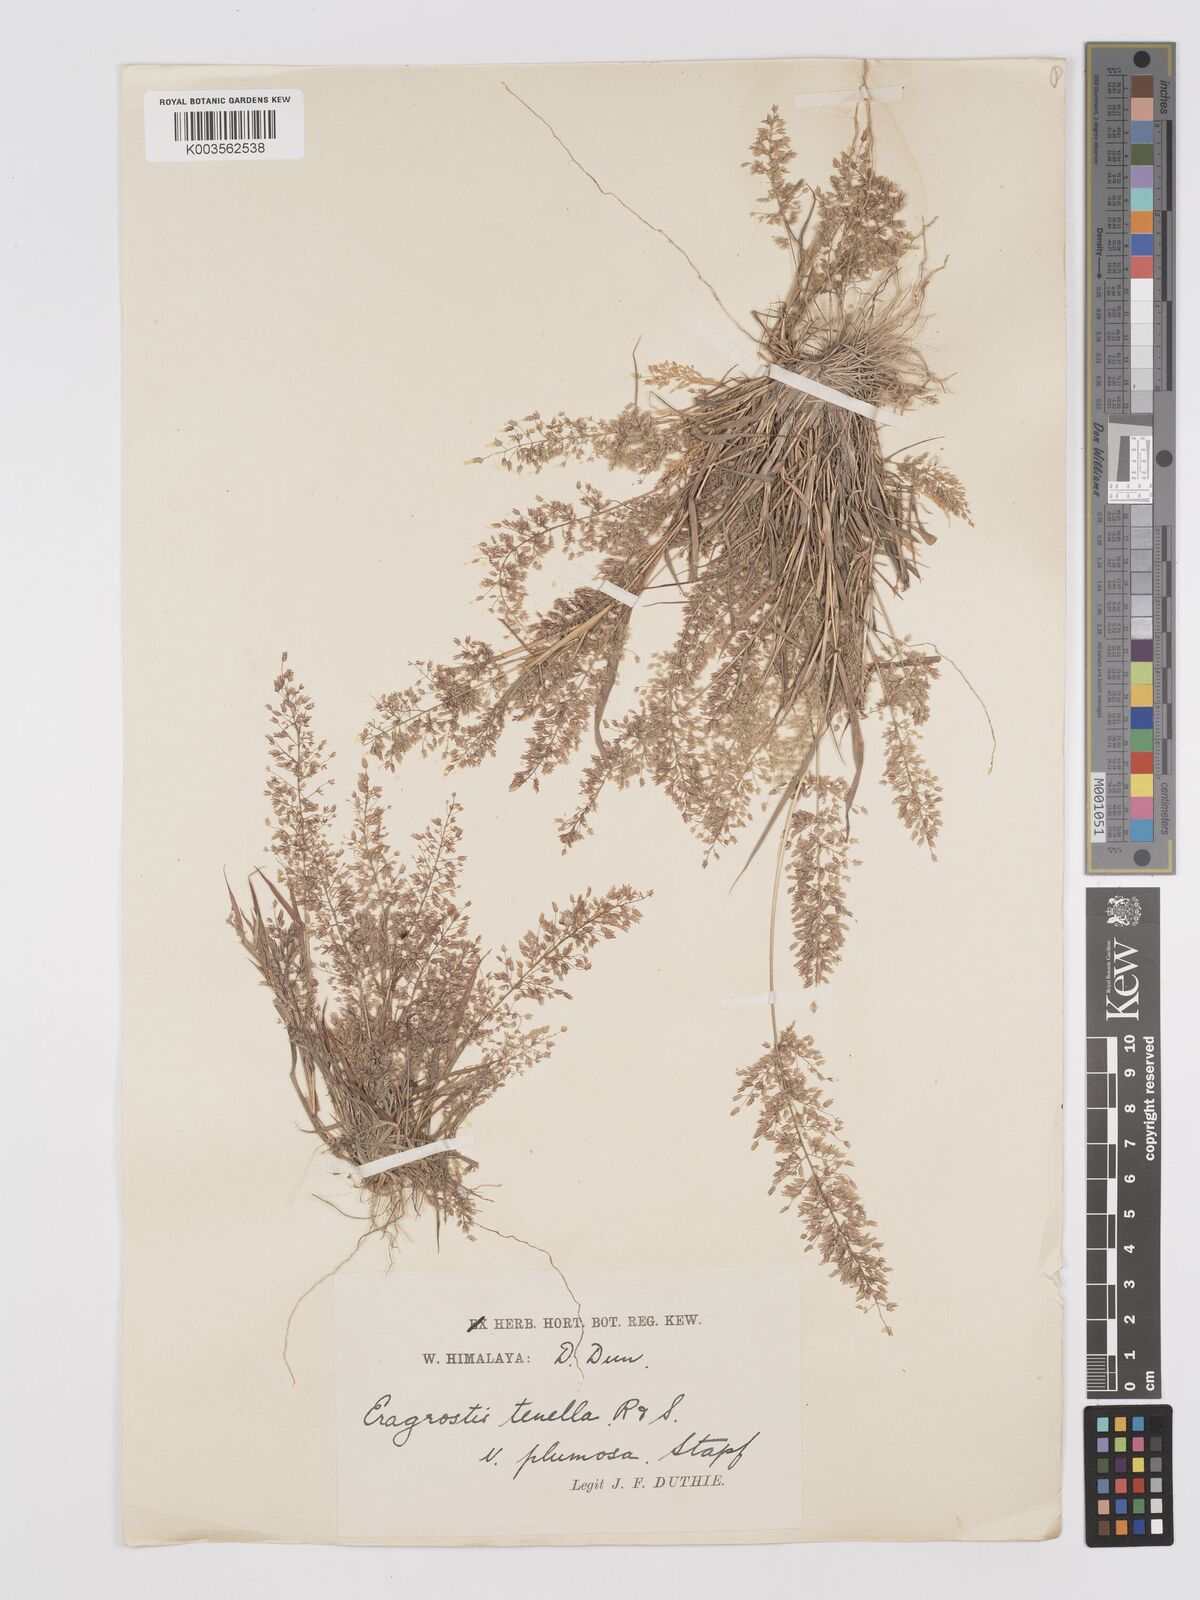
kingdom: Plantae
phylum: Tracheophyta
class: Liliopsida
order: Poales
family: Poaceae
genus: Eragrostis
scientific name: Eragrostis tenella
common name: Japanese lovegrass
